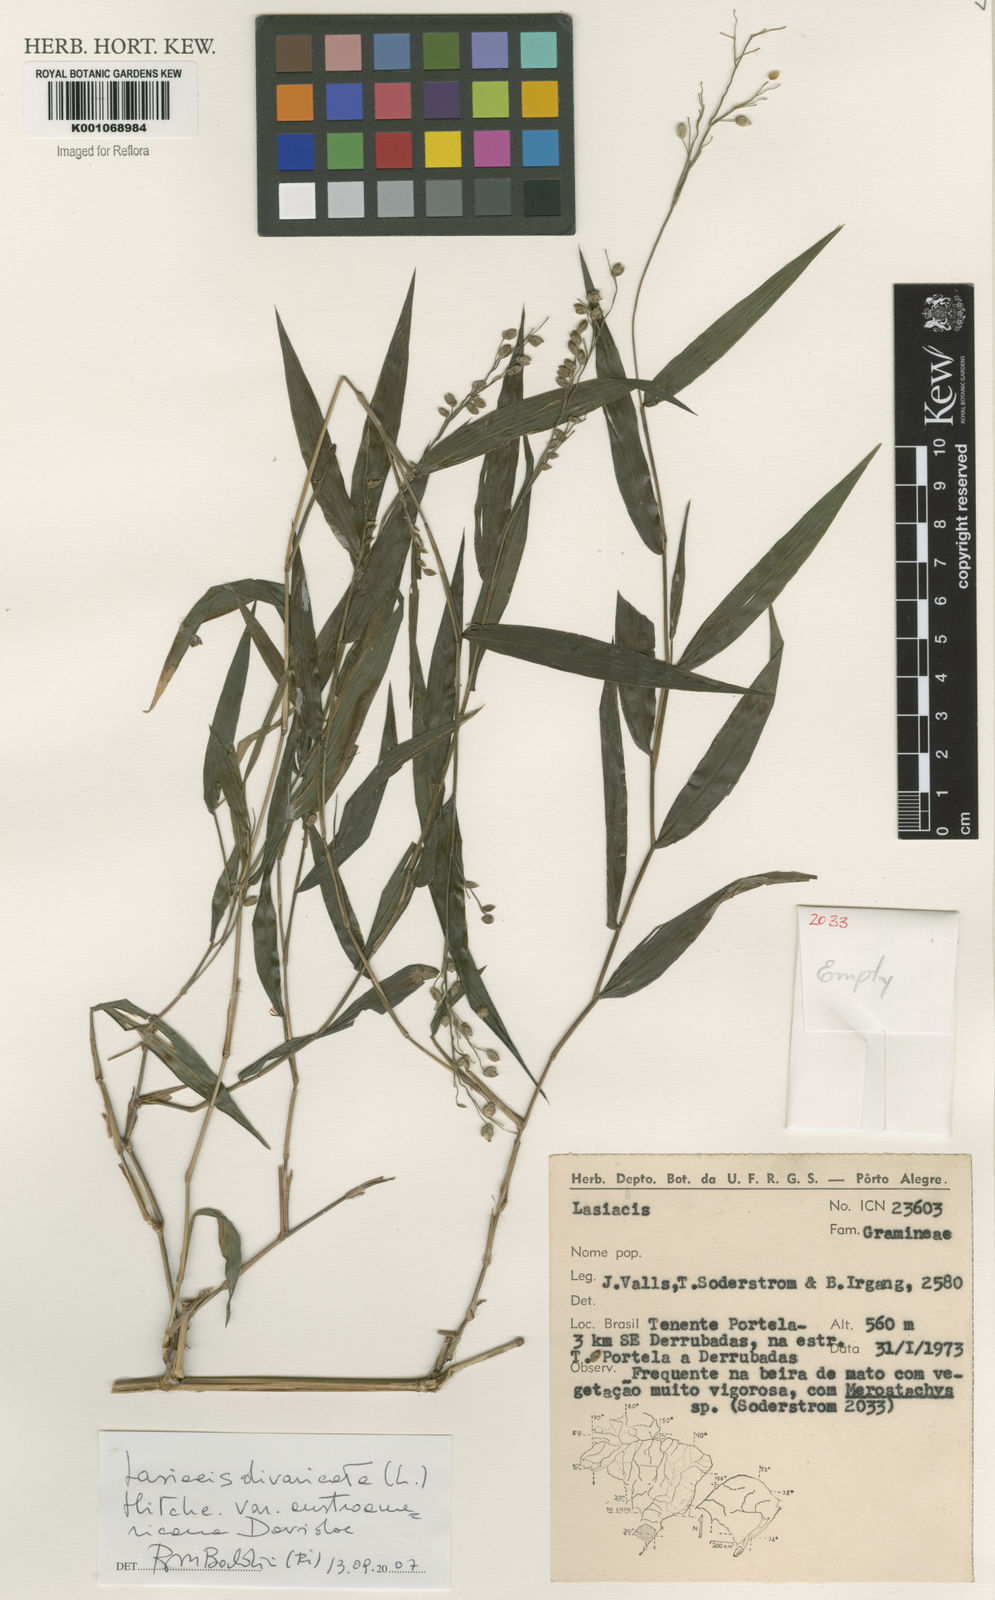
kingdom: Plantae
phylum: Tracheophyta
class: Liliopsida
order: Poales
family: Poaceae
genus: Lasiacis
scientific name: Lasiacis divaricata
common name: Smallcane
